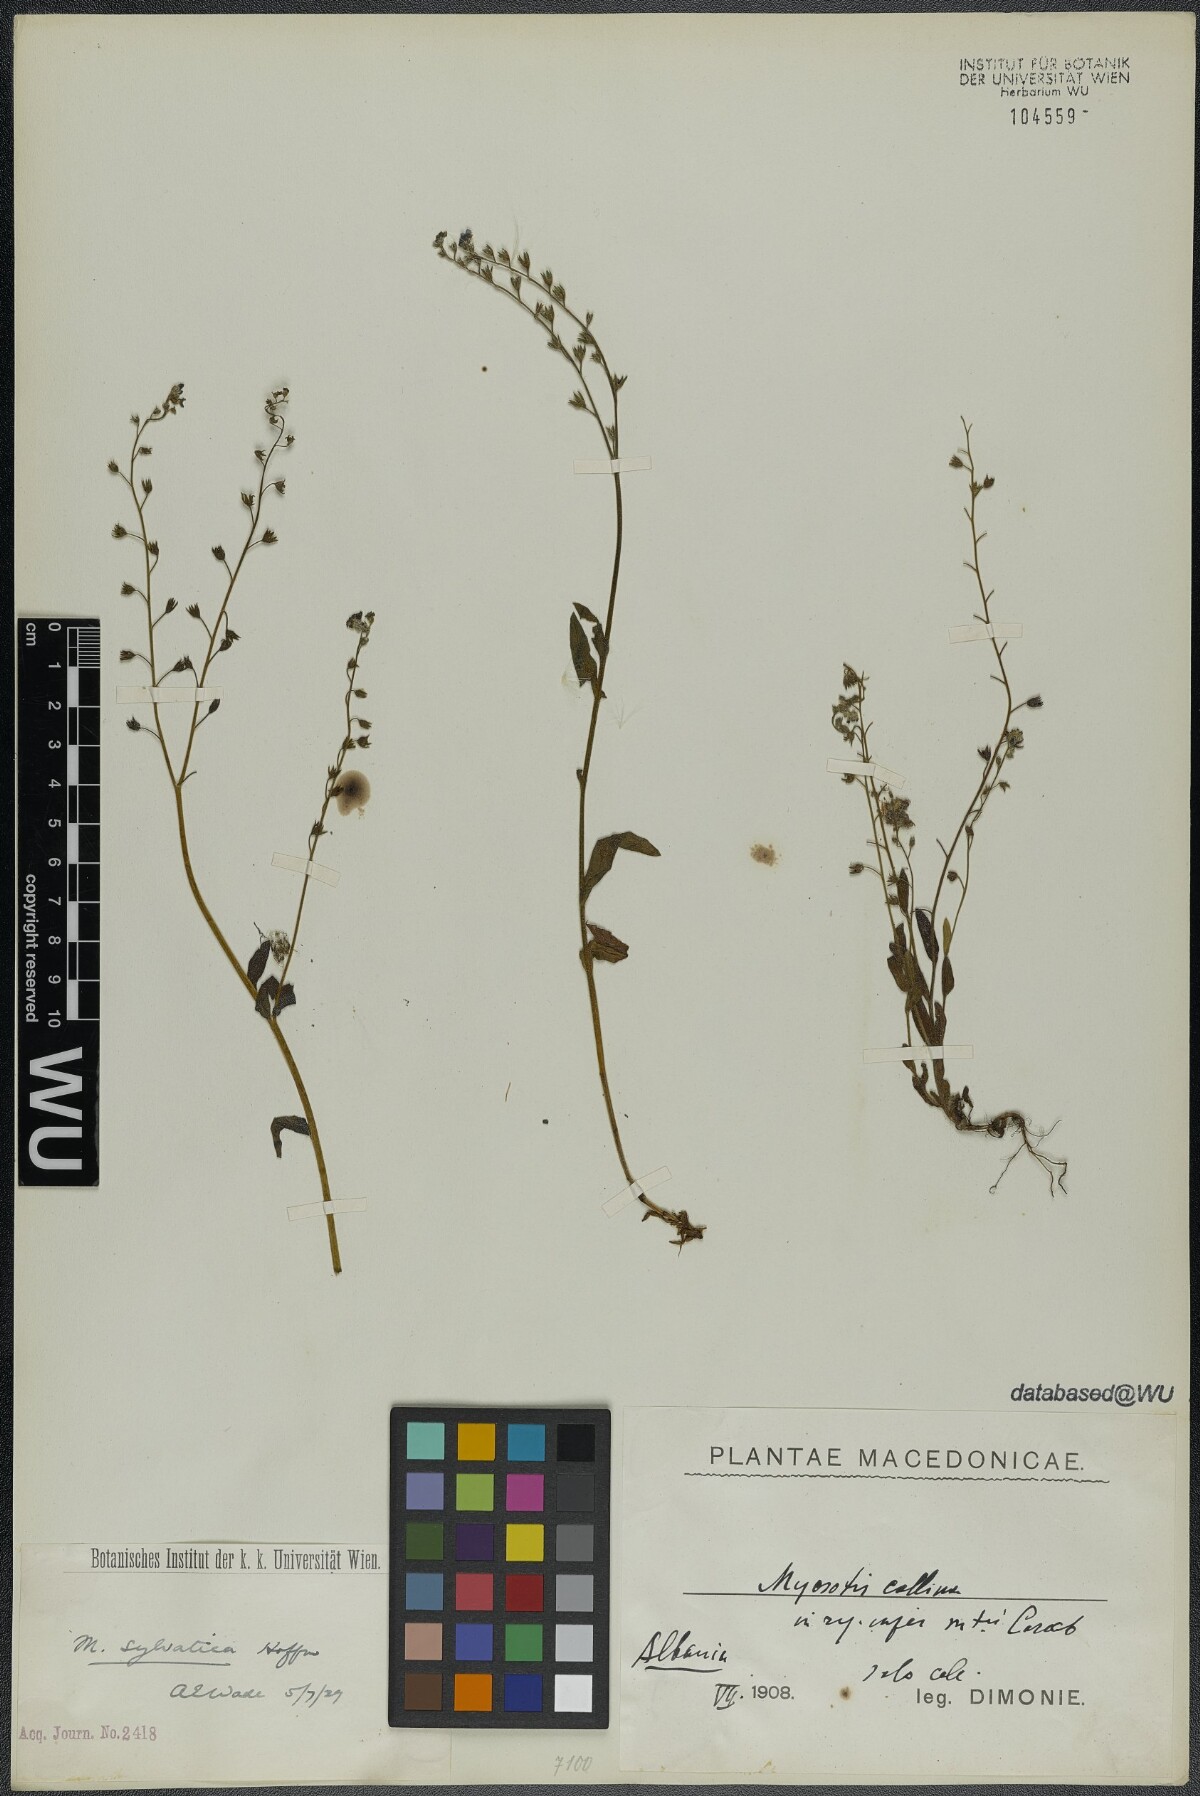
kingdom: Plantae
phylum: Tracheophyta
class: Magnoliopsida
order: Boraginales
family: Boraginaceae
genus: Myosotis
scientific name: Myosotis sylvatica
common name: Wood forget-me-not
